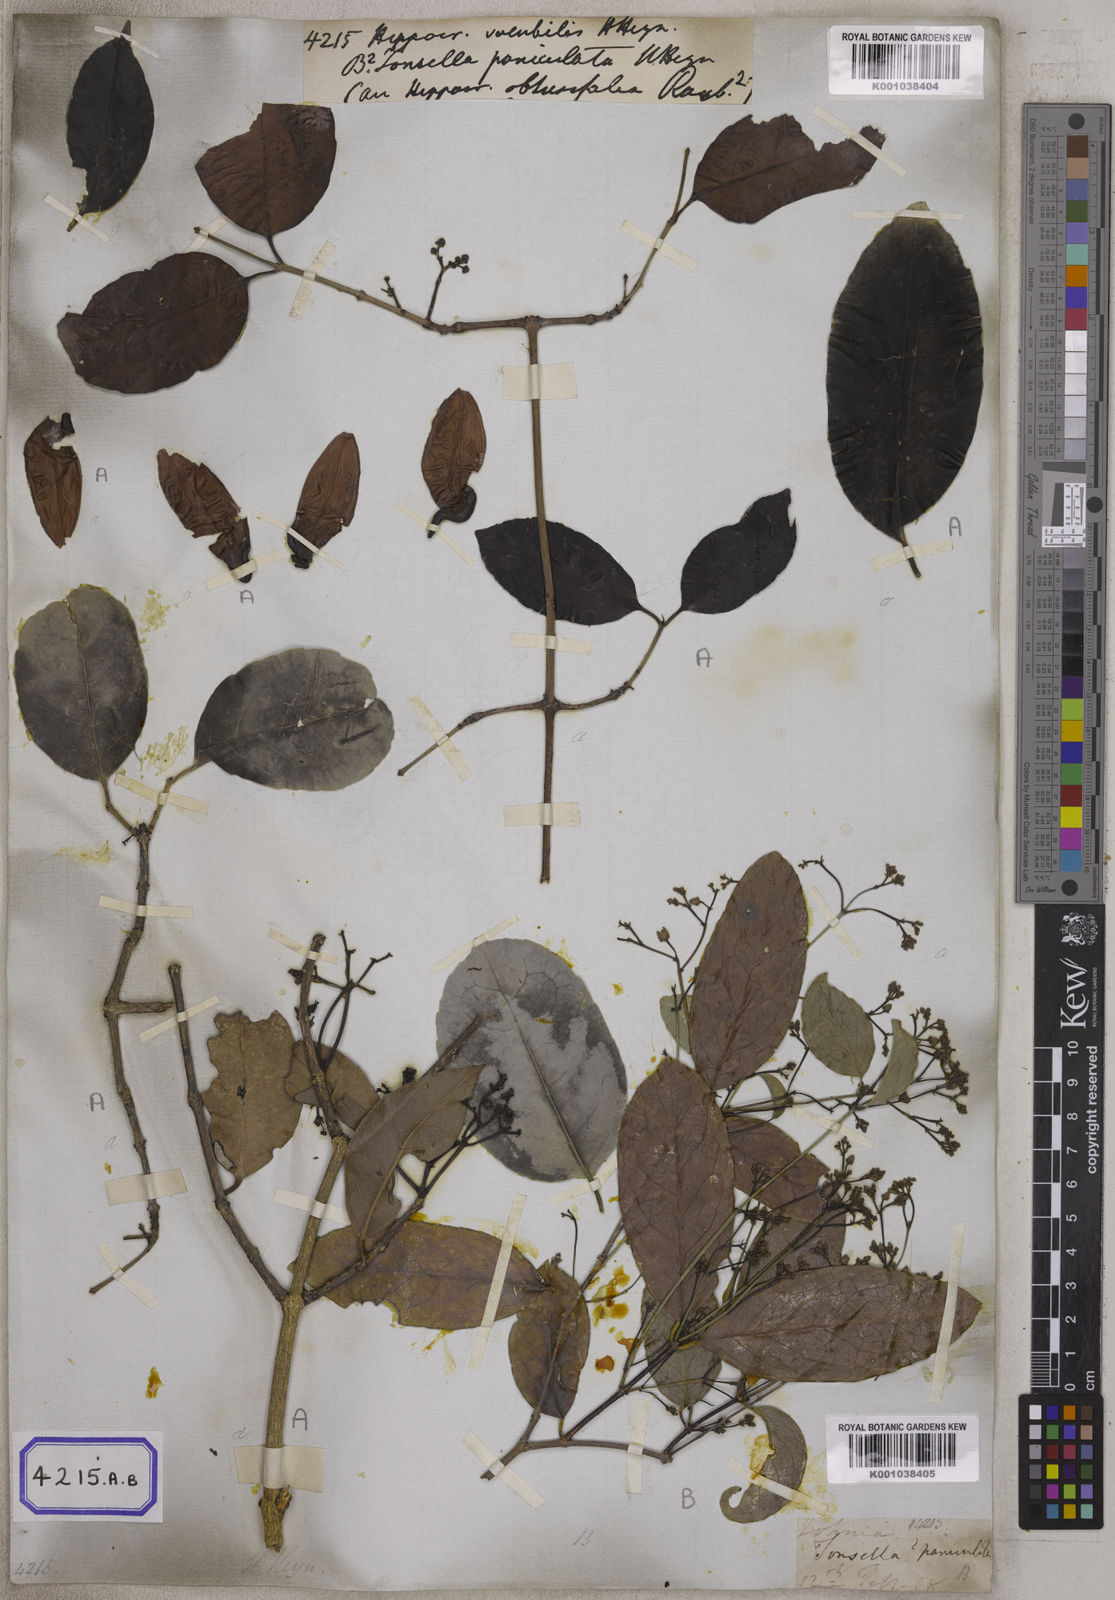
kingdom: Plantae
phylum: Tracheophyta
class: Magnoliopsida
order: Celastrales
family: Celastraceae
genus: Hippocratea
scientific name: Hippocratea
